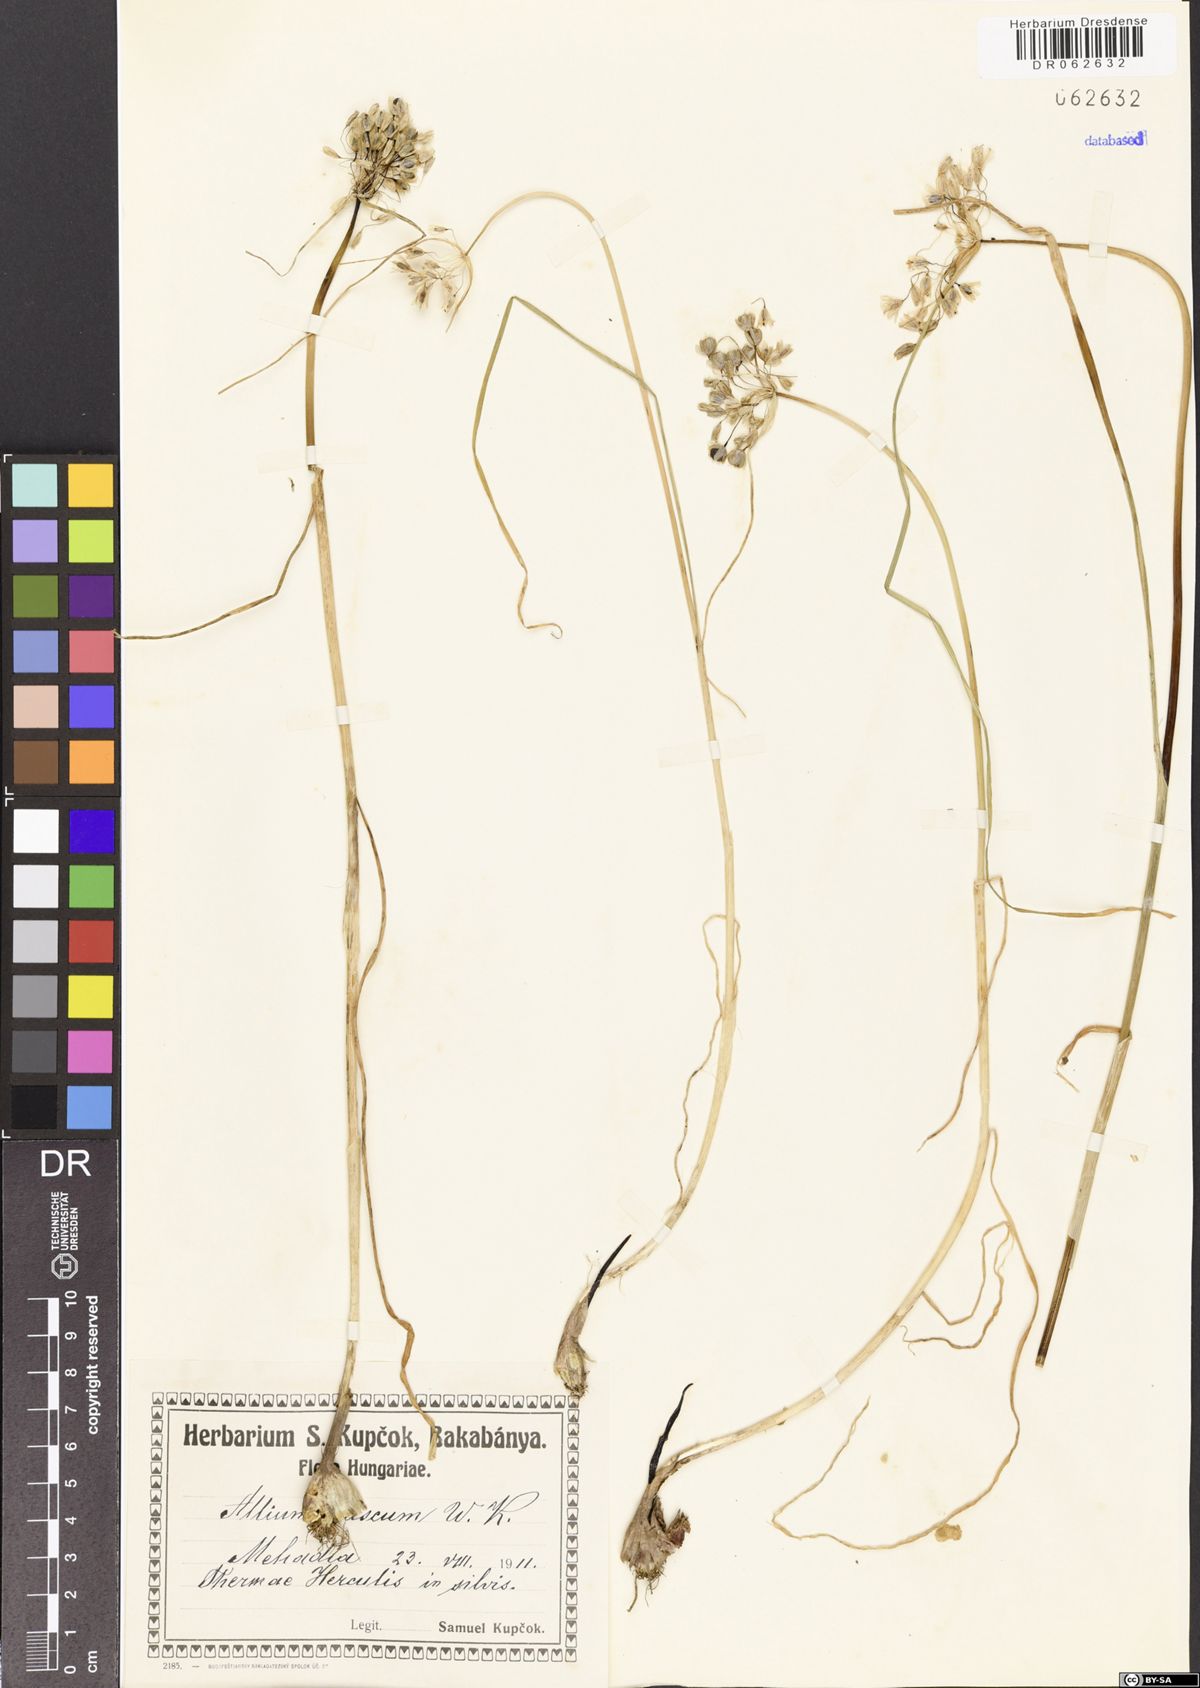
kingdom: Plantae
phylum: Tracheophyta
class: Liliopsida
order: Asparagales
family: Amaryllidaceae
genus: Allium
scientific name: Allium fuscum
